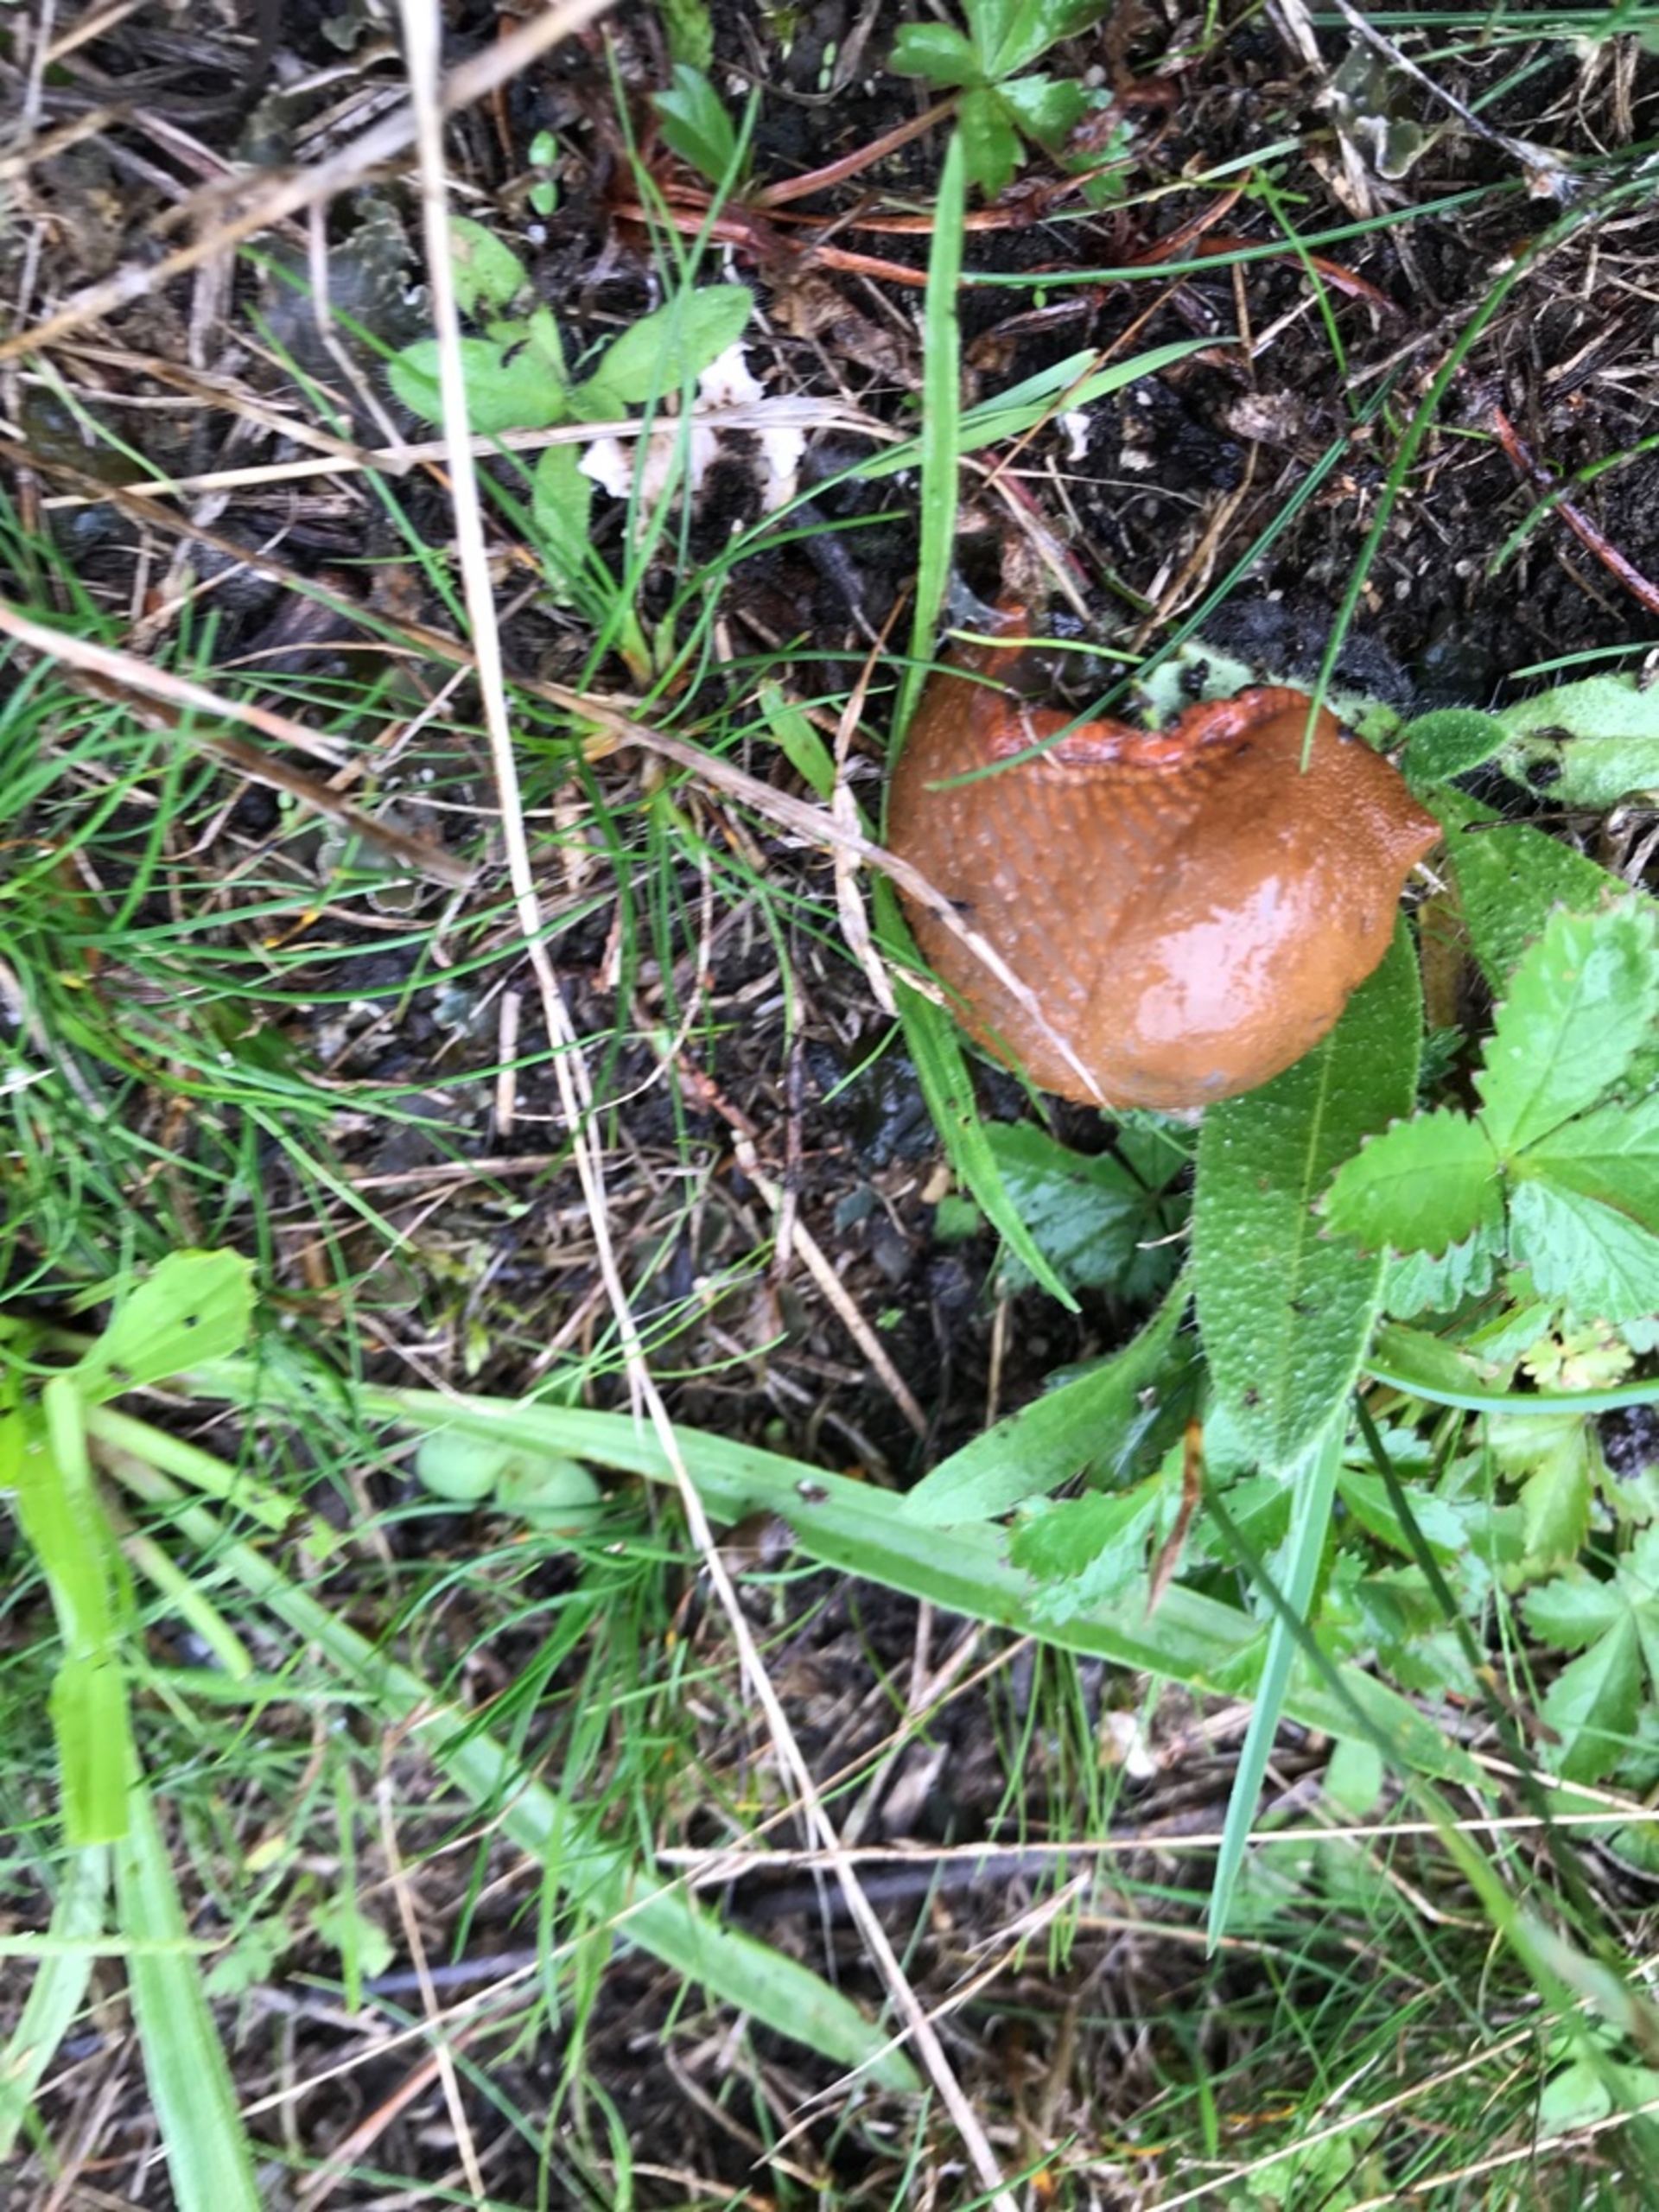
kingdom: Animalia
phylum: Mollusca
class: Gastropoda
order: Stylommatophora
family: Arionidae
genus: Arion
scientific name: Arion vulgaris
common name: Iberisk skovsnegl
